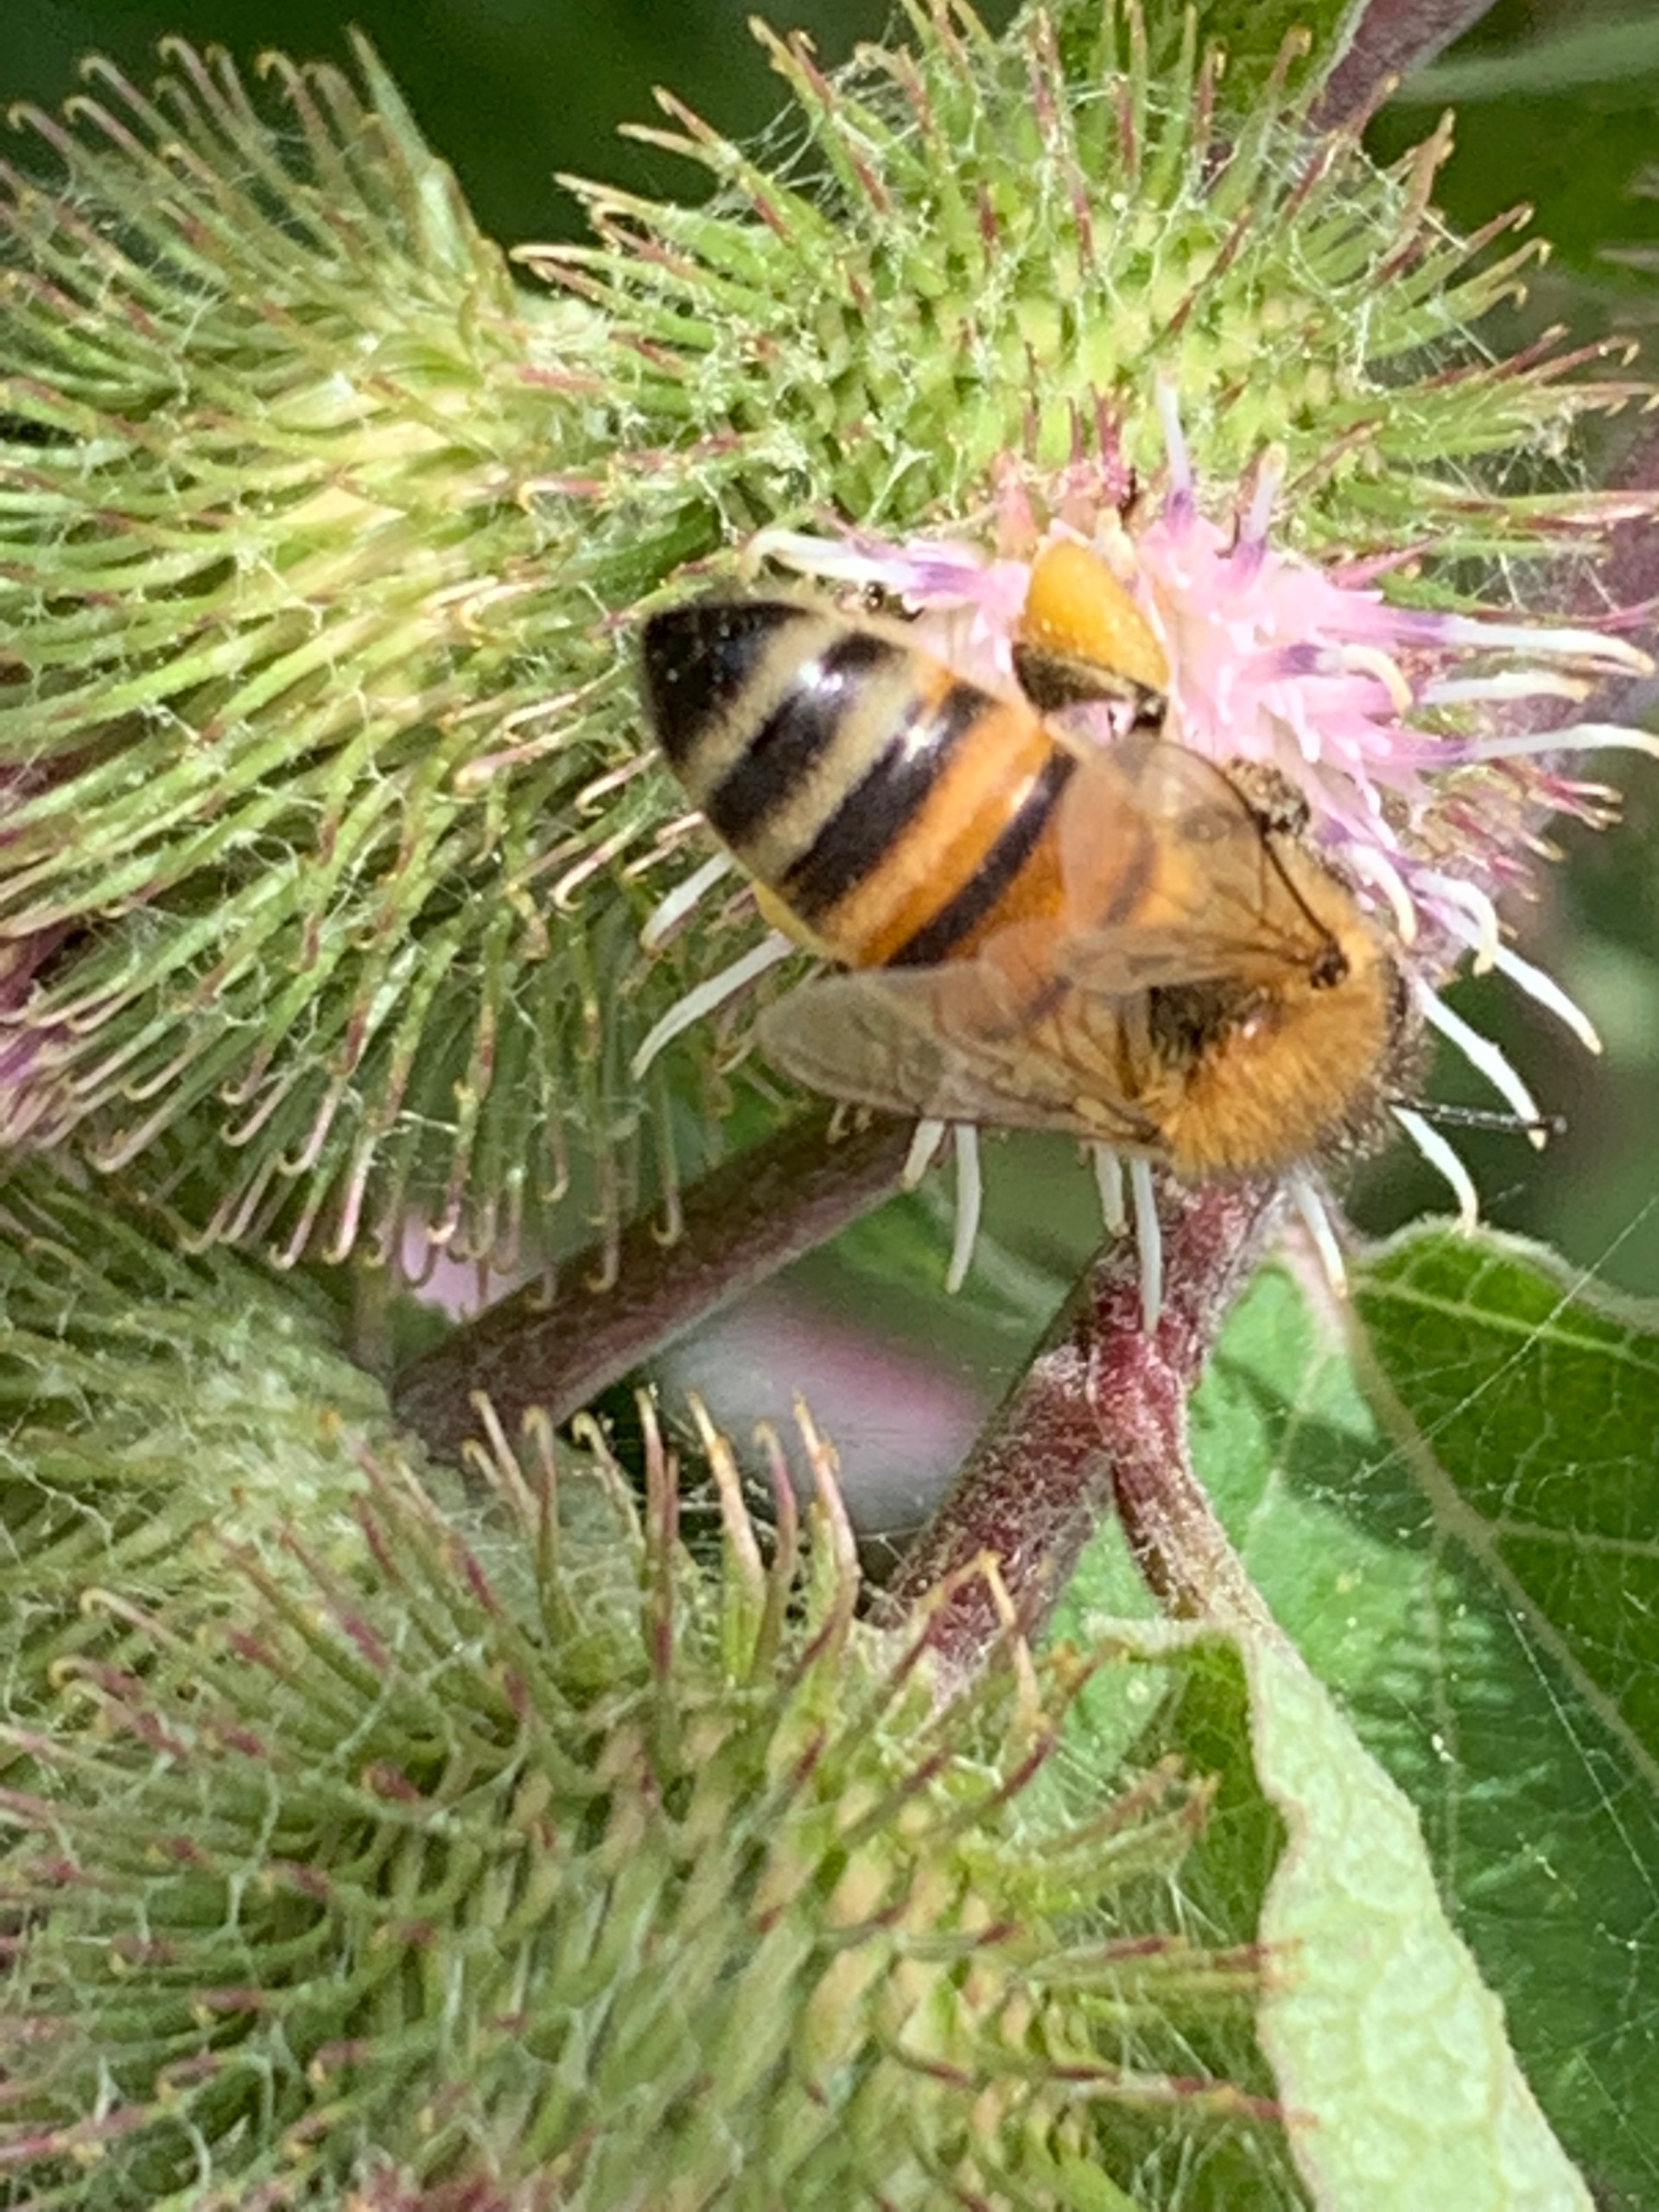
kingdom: Animalia
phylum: Arthropoda
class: Insecta
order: Hymenoptera
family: Apidae
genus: Apis
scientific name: Apis mellifera
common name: Honningbi
